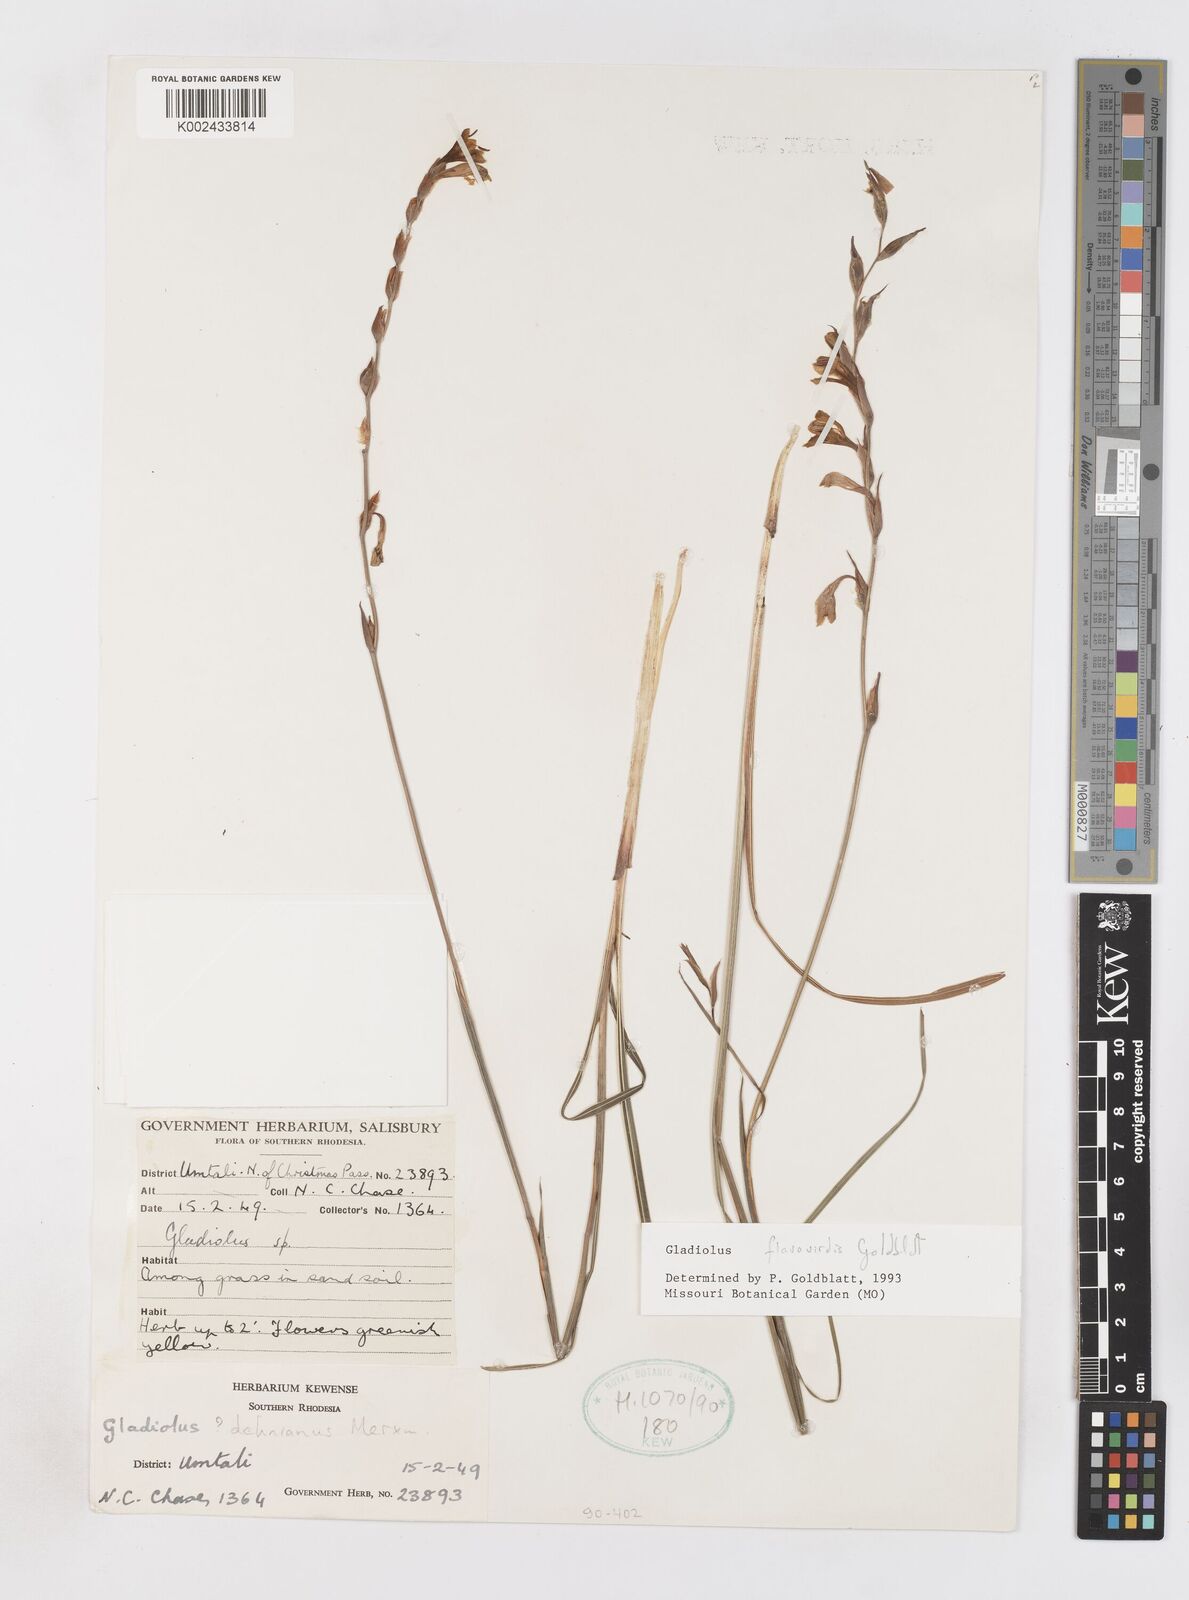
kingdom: Plantae
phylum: Tracheophyta
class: Liliopsida
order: Asparagales
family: Iridaceae
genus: Gladiolus
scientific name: Gladiolus flavoviridis
